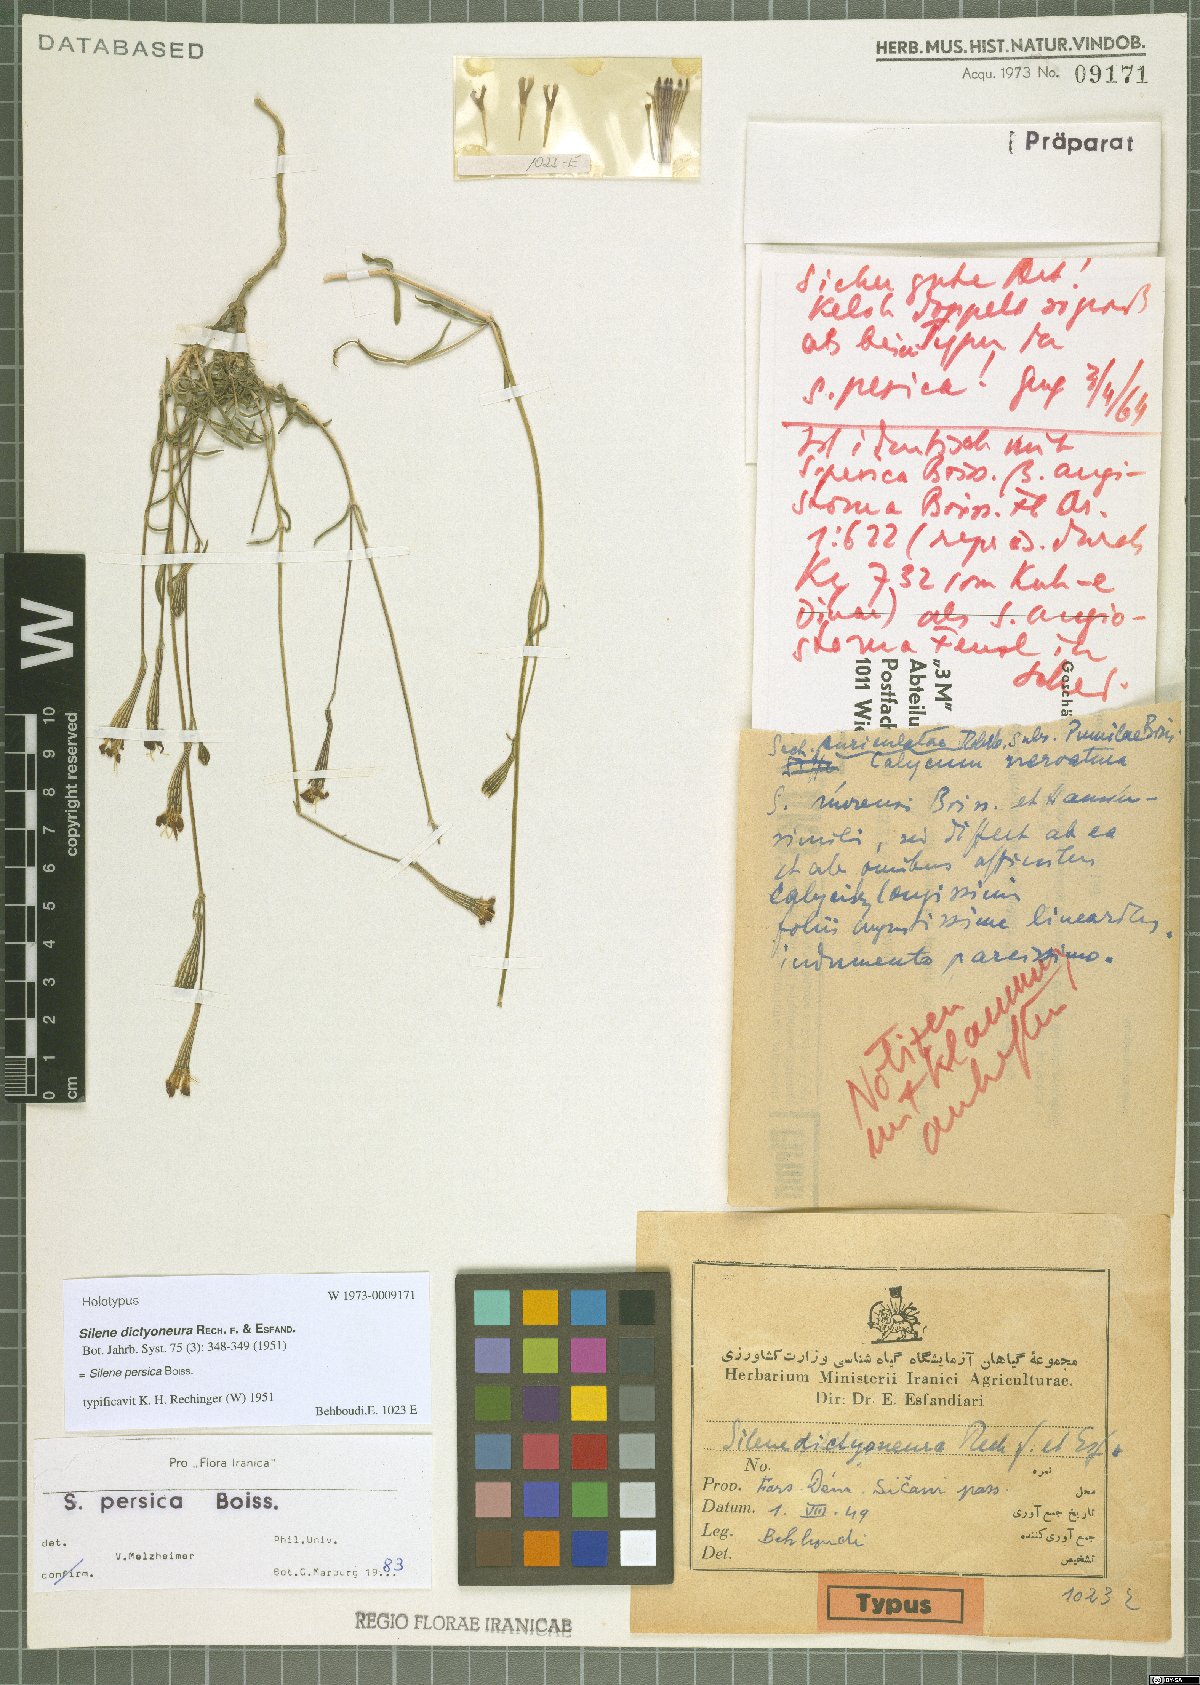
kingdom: Plantae
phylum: Tracheophyta
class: Magnoliopsida
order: Caryophyllales
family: Caryophyllaceae
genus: Silene
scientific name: Silene persica
